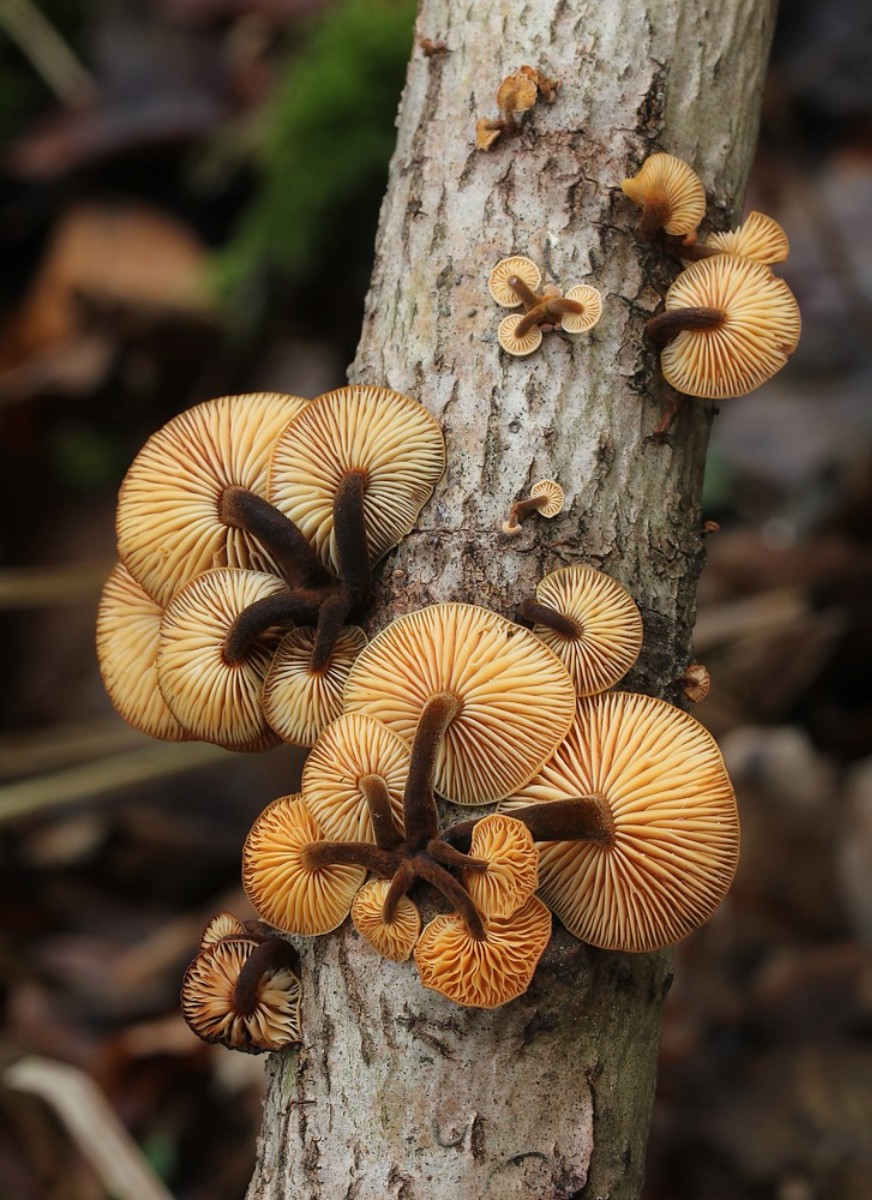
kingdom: Fungi
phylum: Basidiomycota
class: Agaricomycetes
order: Agaricales
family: Physalacriaceae
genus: Flammulina
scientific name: Flammulina velutipes
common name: gul fløjlsfod
